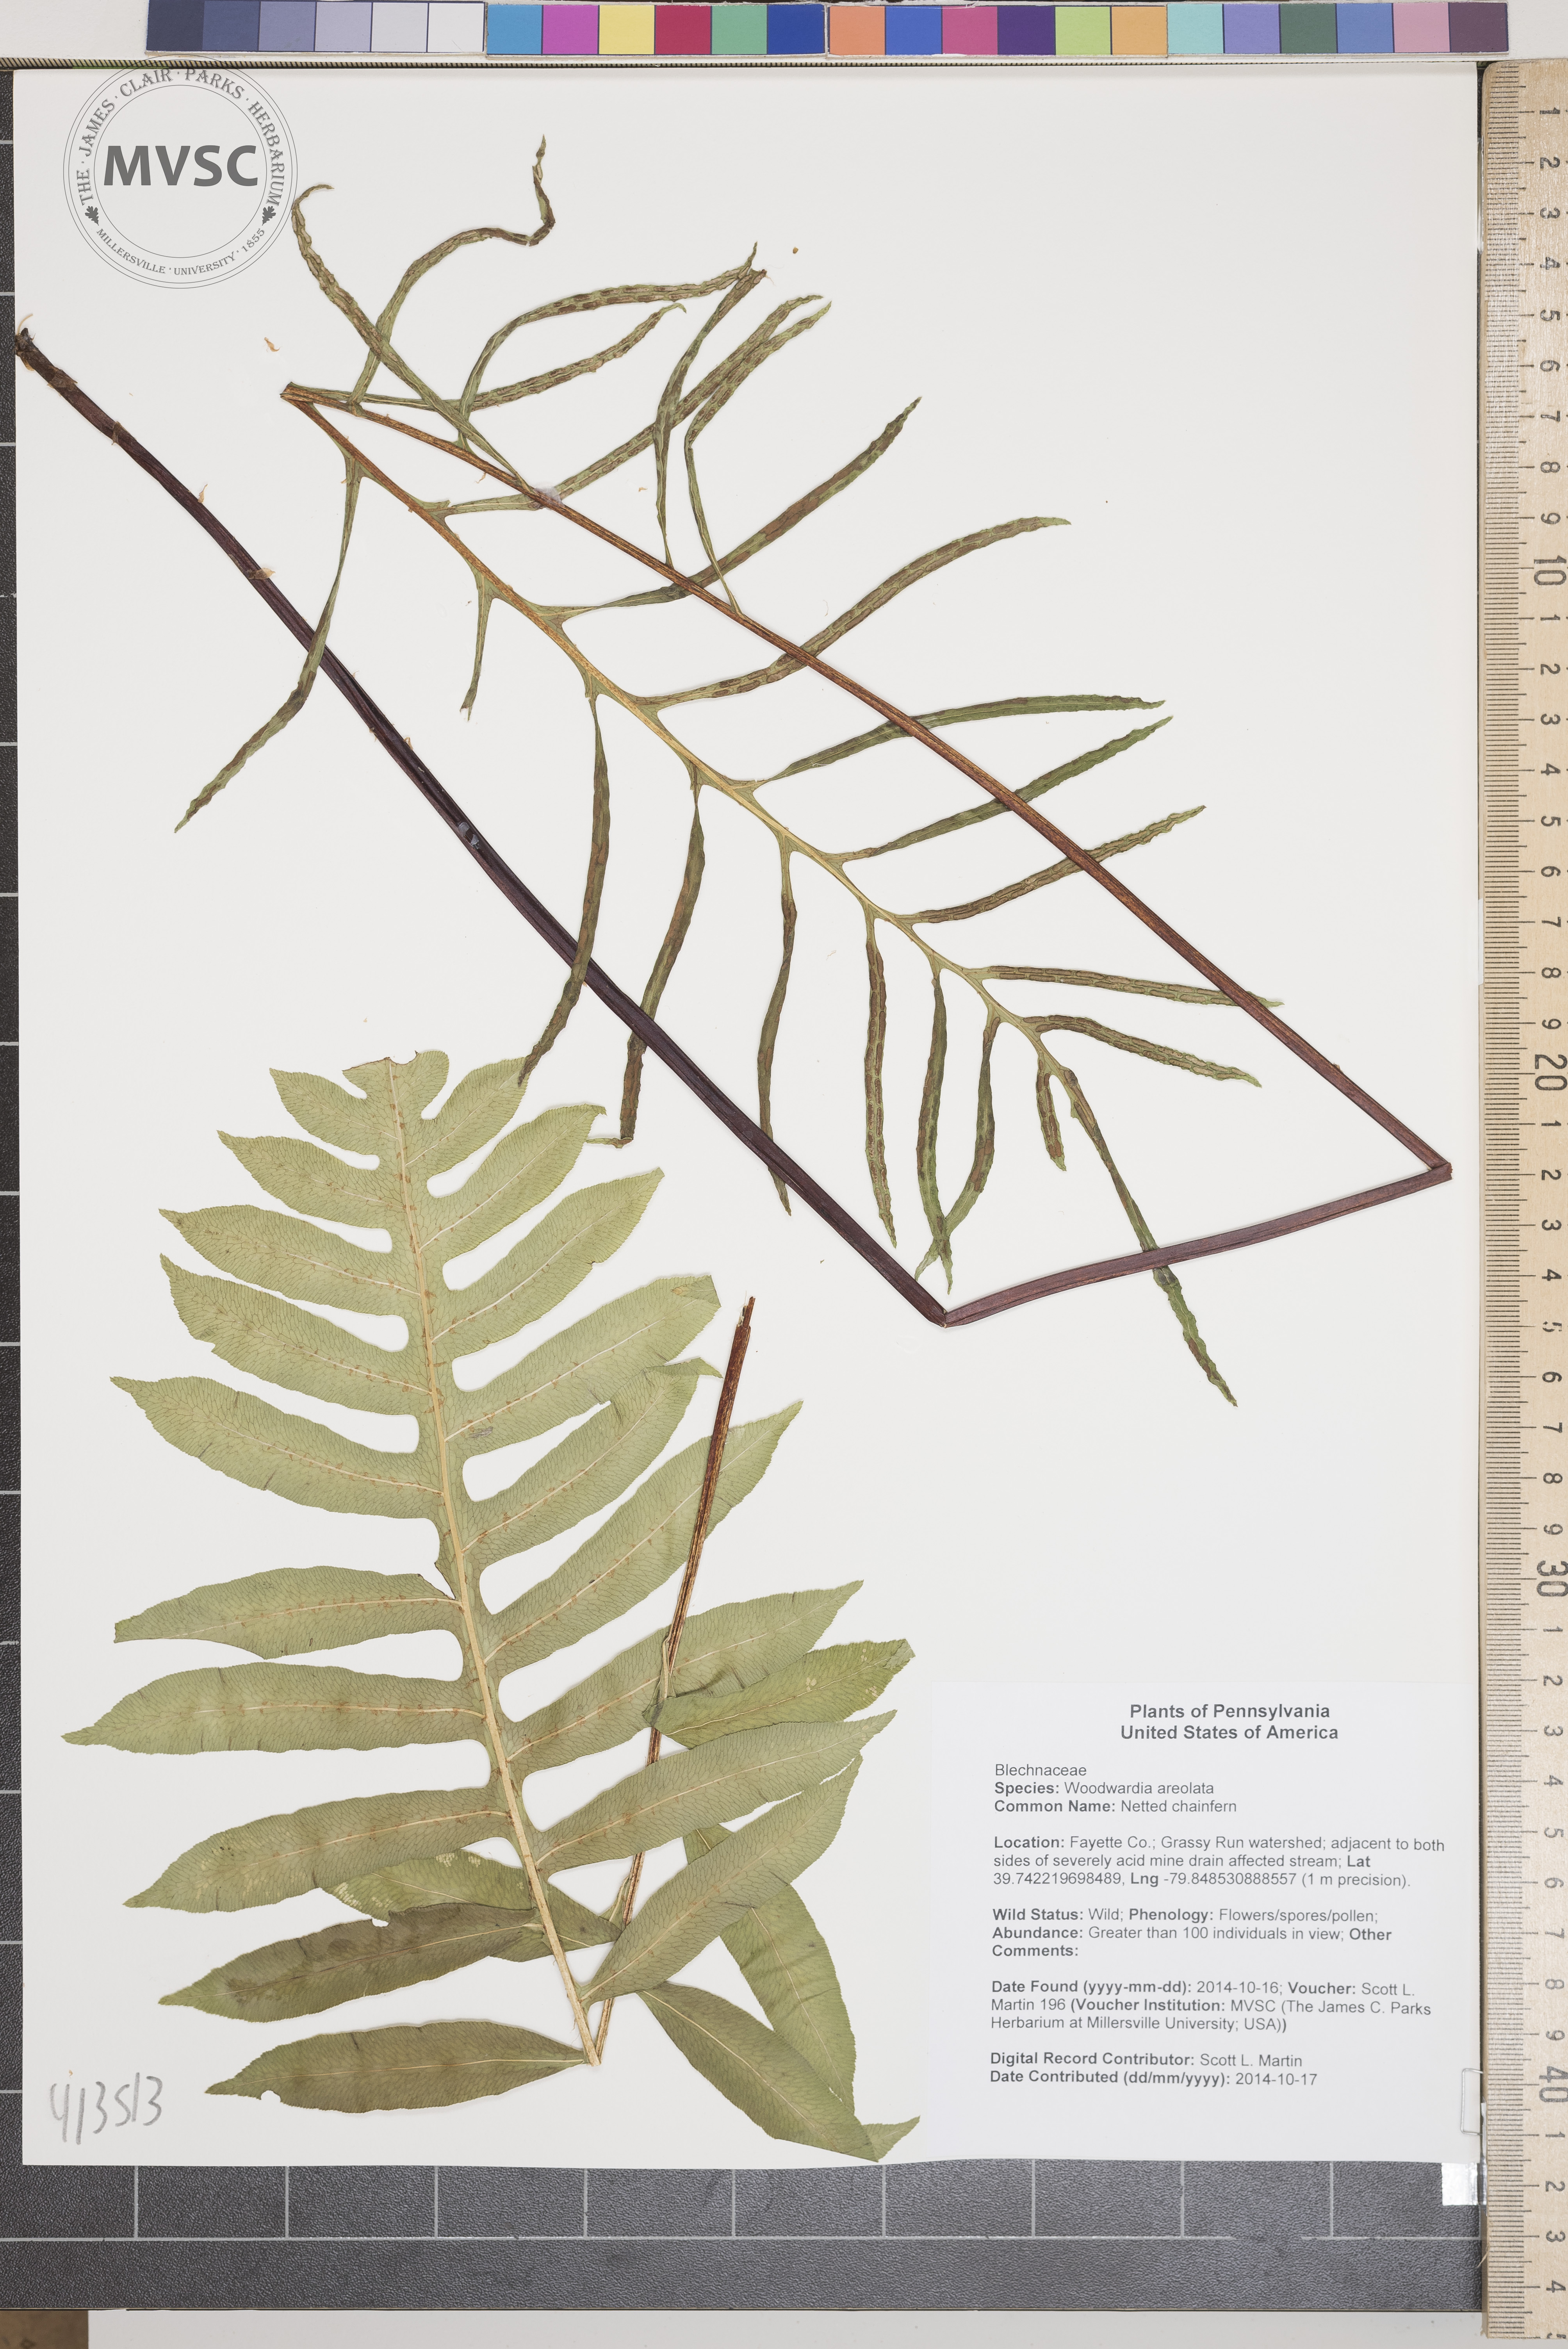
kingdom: Plantae
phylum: Tracheophyta
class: Polypodiopsida
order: Polypodiales
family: Blechnaceae
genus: Lorinseria
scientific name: Lorinseria areolata
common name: Netted chainfern
